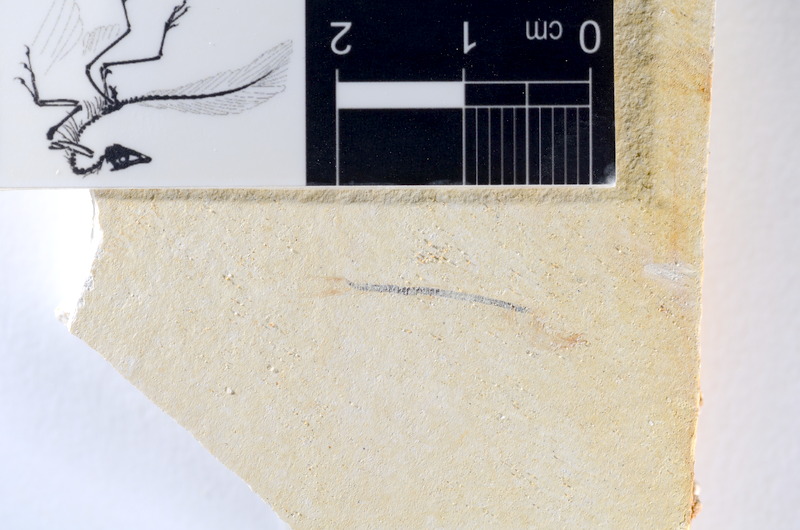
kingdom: Animalia
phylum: Chordata
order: Salmoniformes
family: Orthogonikleithridae
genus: Orthogonikleithrus
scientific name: Orthogonikleithrus hoelli
